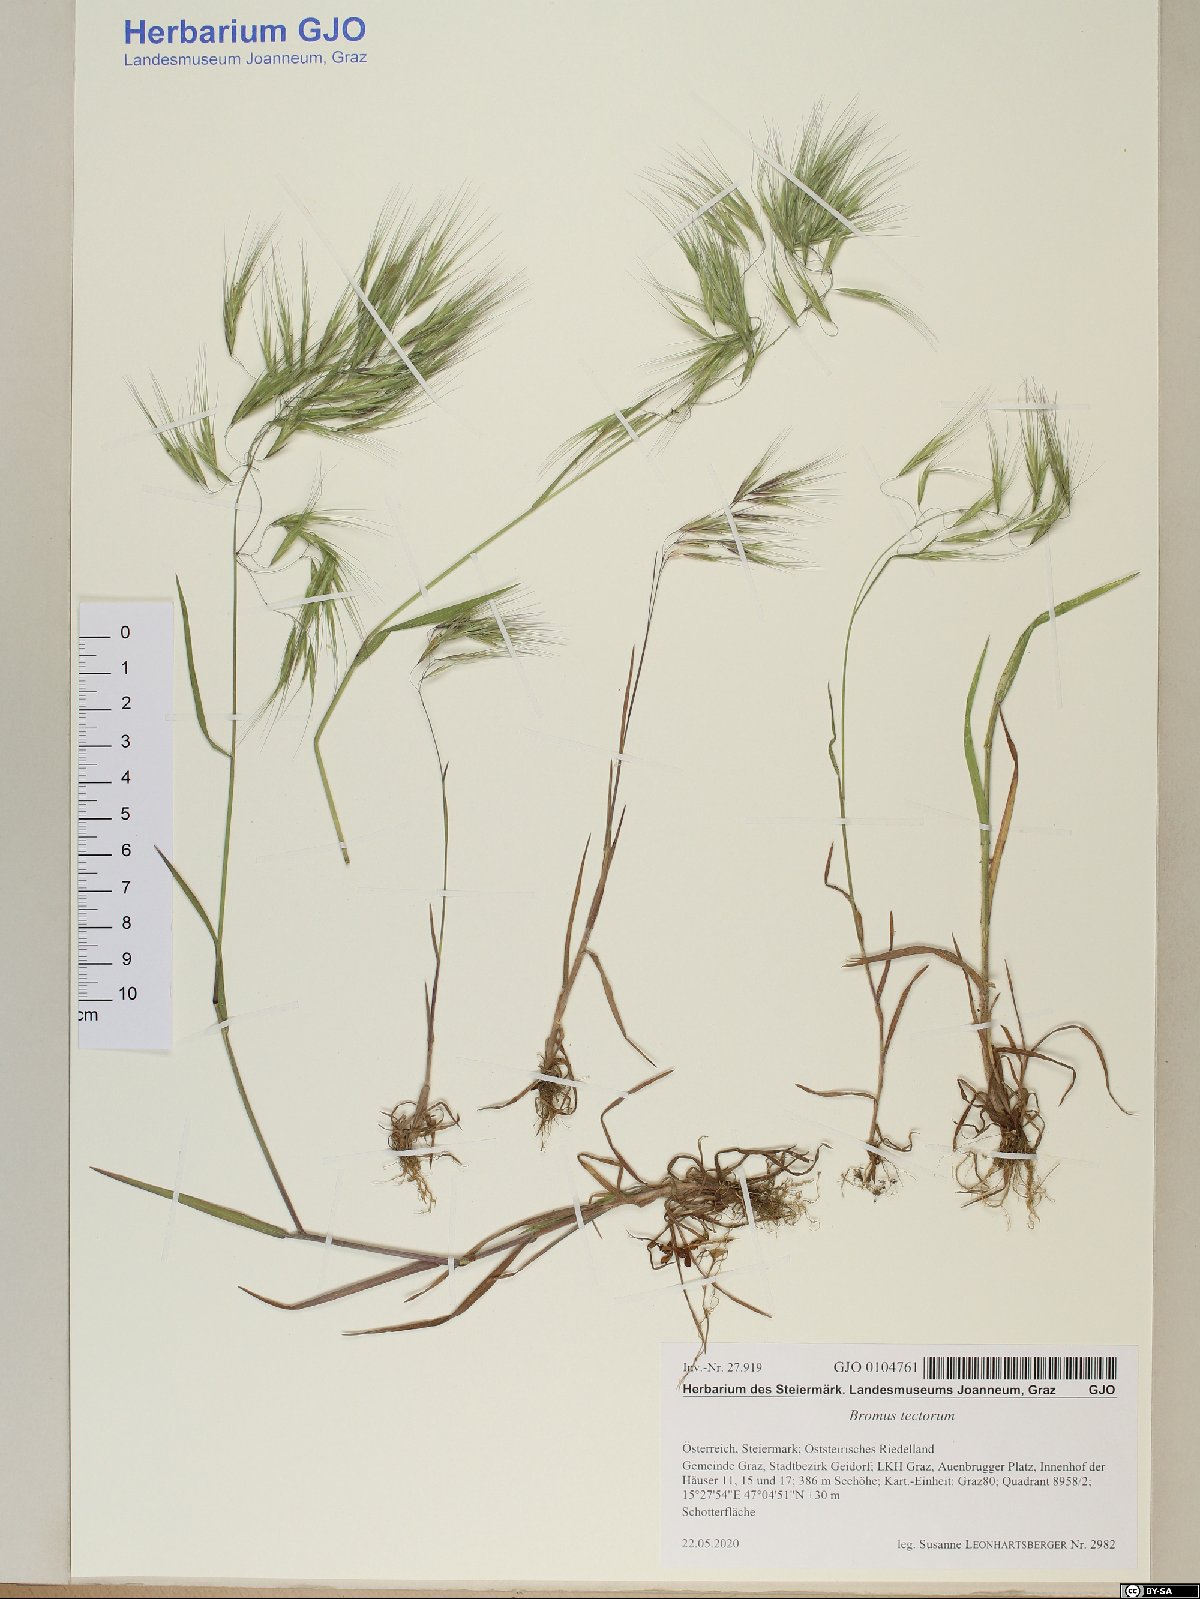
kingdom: Plantae
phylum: Tracheophyta
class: Liliopsida
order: Poales
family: Poaceae
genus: Bromus
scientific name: Bromus tectorum
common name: Cheatgrass
